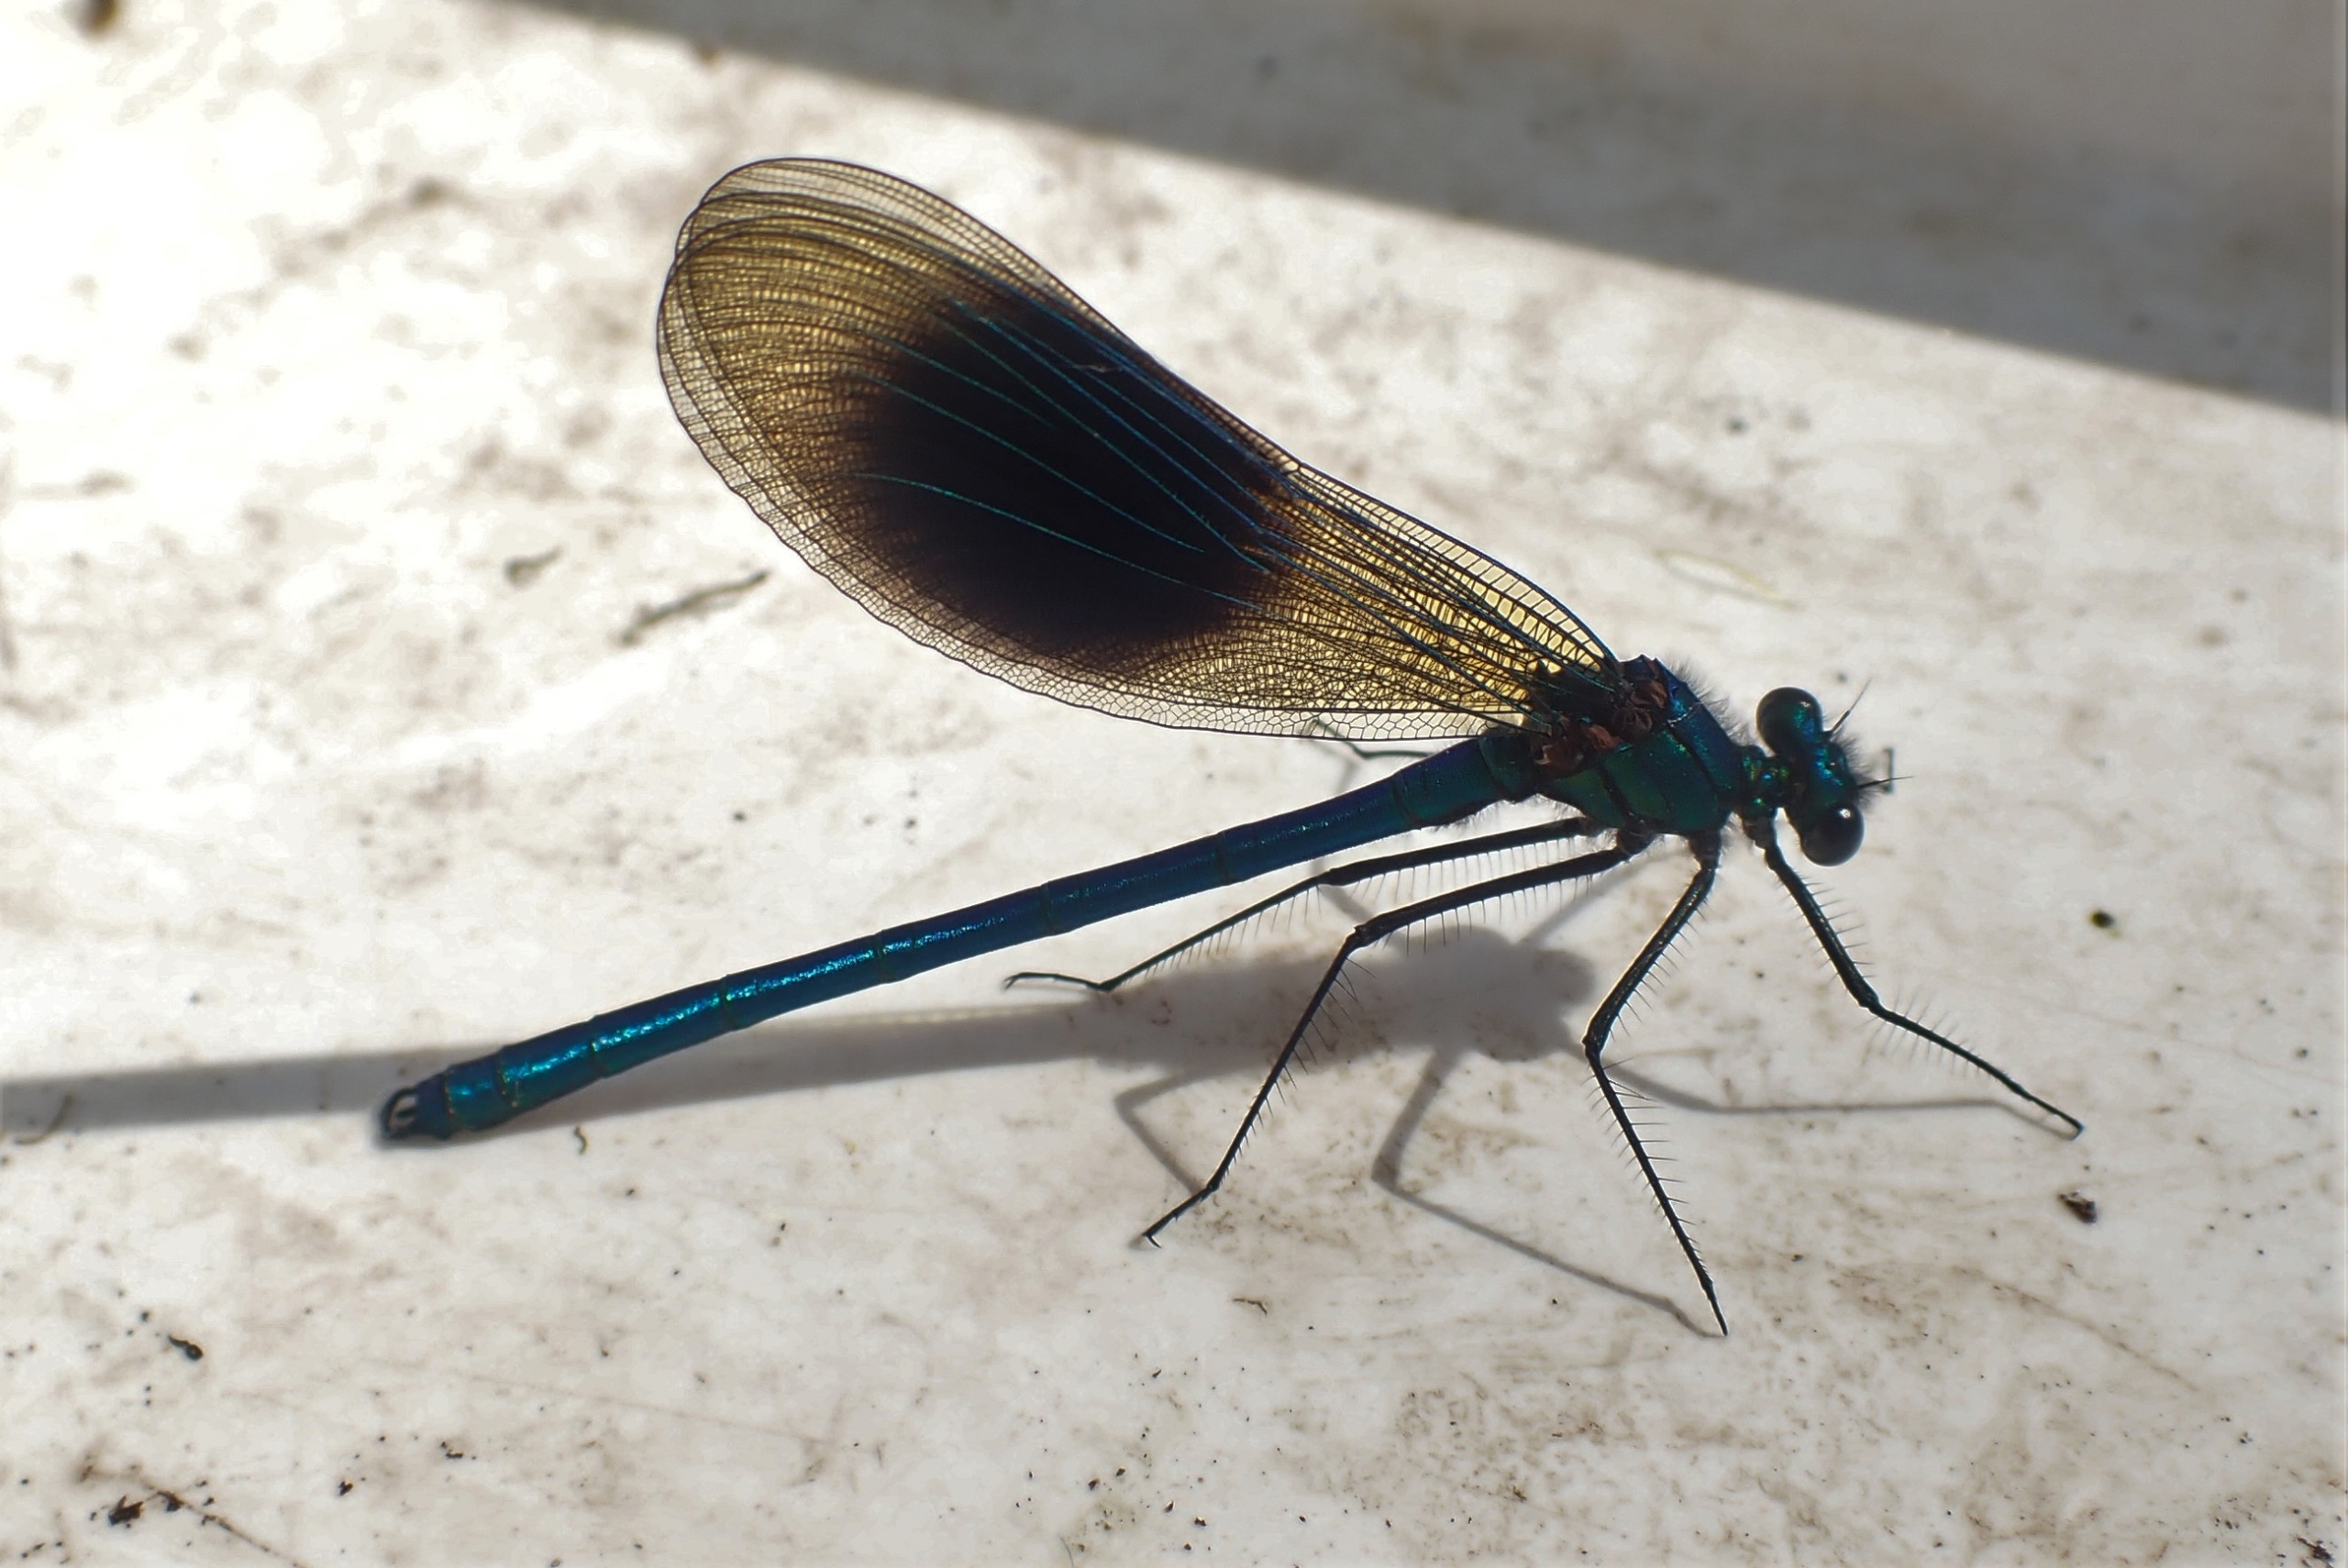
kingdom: Animalia
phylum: Arthropoda
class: Insecta
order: Odonata
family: Calopterygidae
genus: Calopteryx
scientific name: Calopteryx splendens
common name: Blåbåndet pragtvandnymfe
